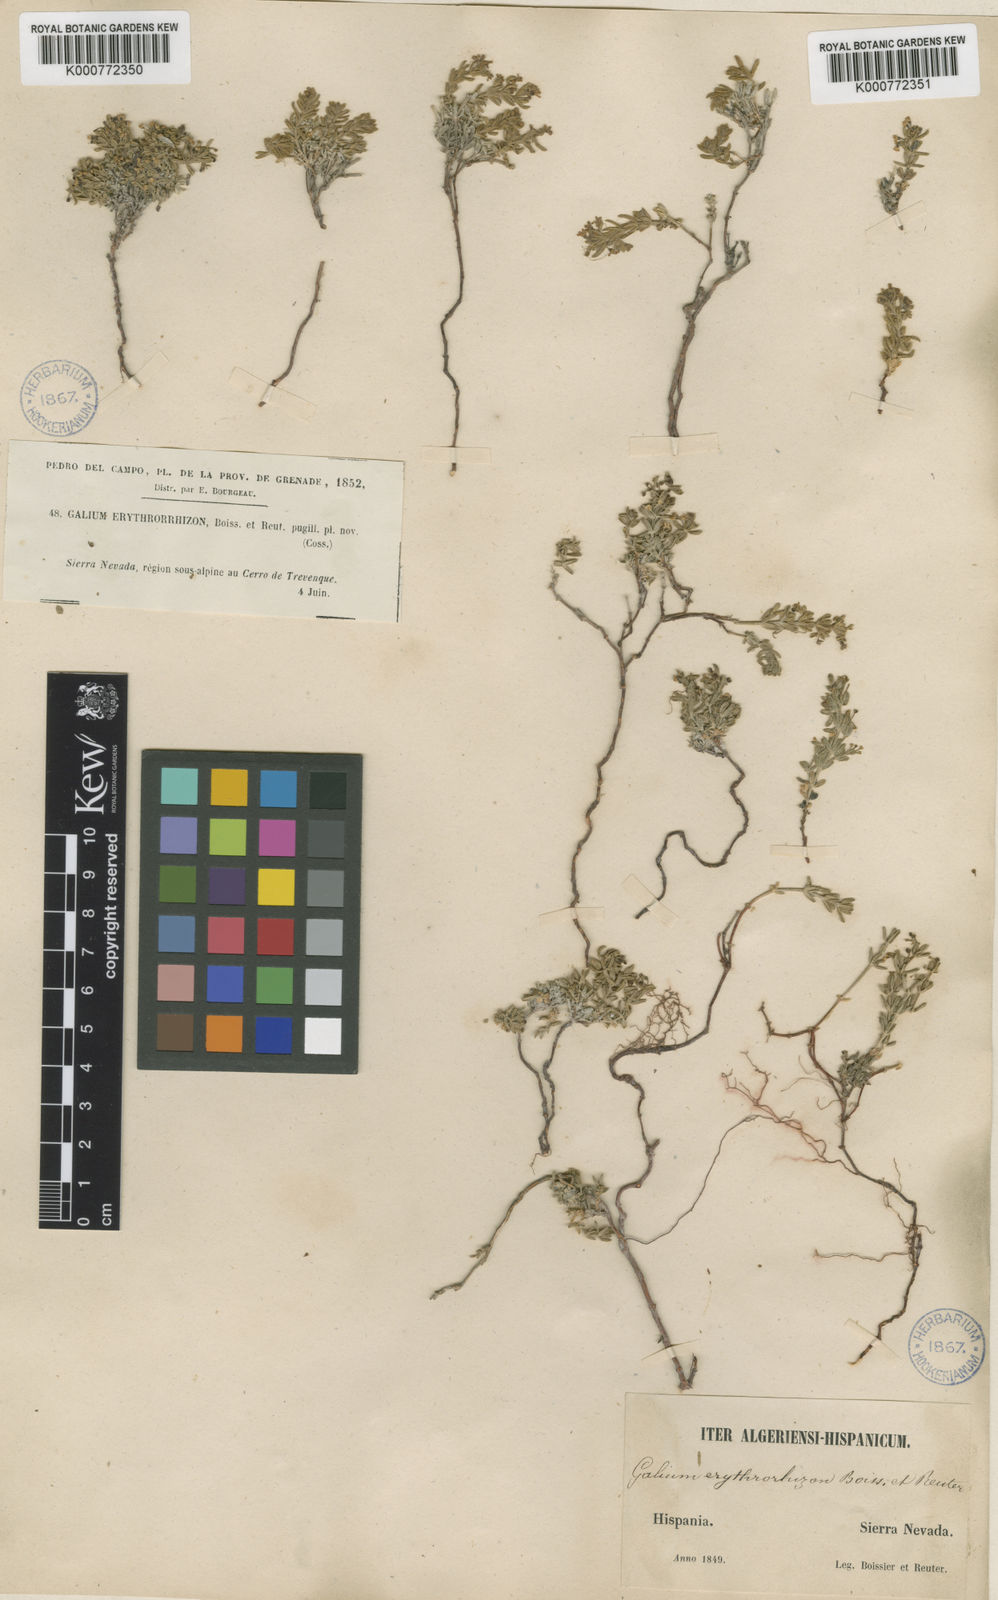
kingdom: Plantae
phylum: Tracheophyta
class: Magnoliopsida
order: Gentianales
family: Rubiaceae
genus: Galium
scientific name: Galium erythrorrhizon
